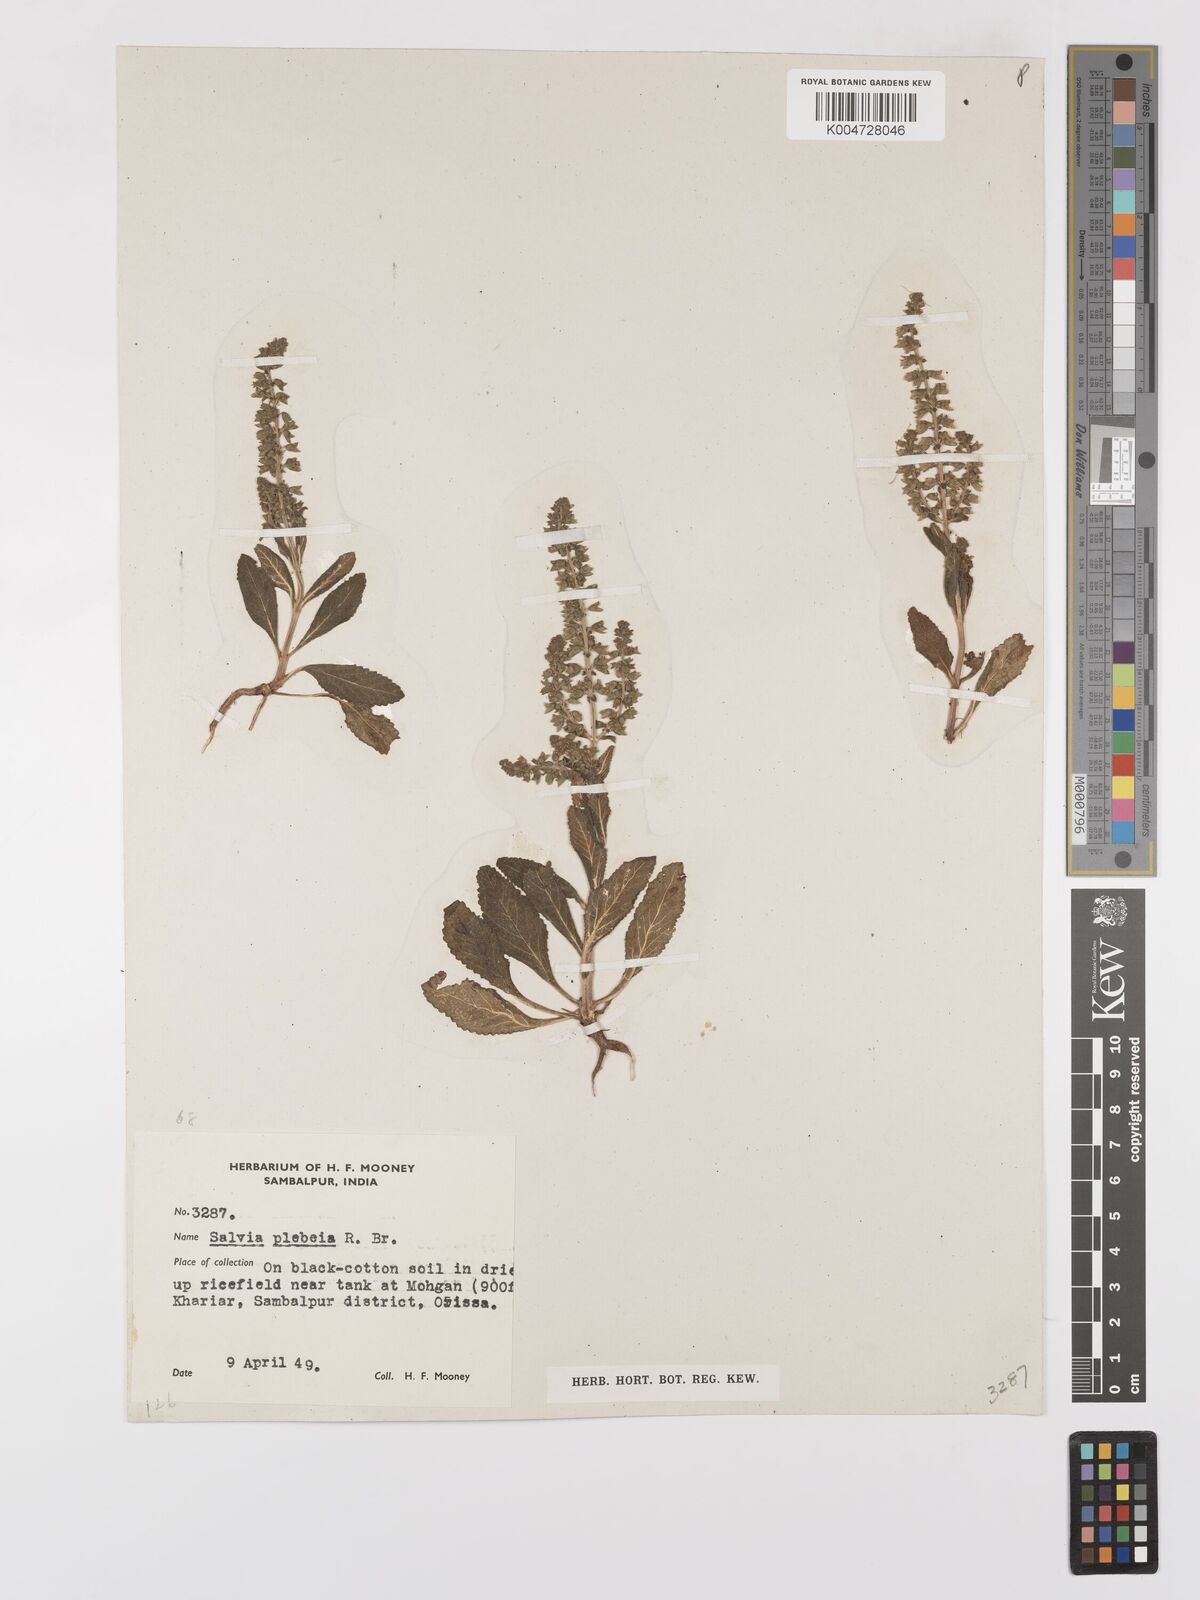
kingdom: Plantae
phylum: Tracheophyta
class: Magnoliopsida
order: Lamiales
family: Lamiaceae
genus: Salvia
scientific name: Salvia plebeia
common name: Australian sage
